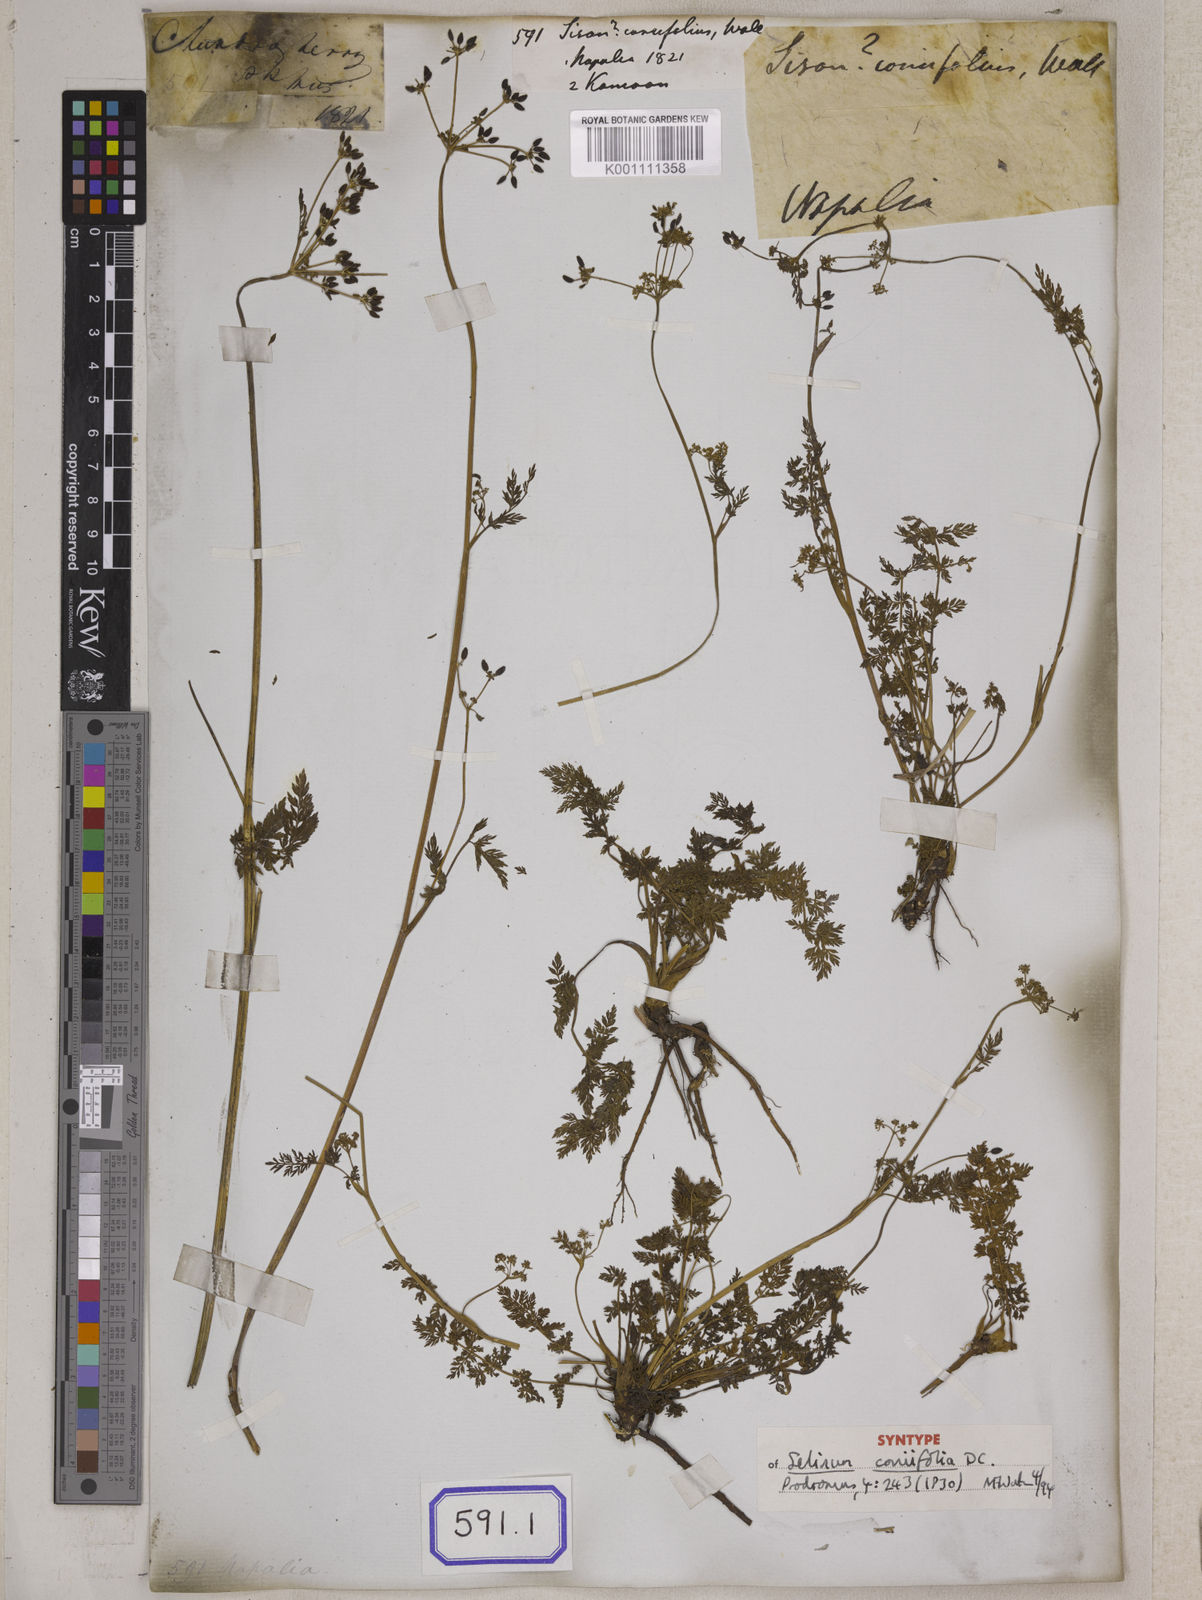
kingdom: Plantae
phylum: Tracheophyta
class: Magnoliopsida
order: Apiales
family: Apiaceae
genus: Sison
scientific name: Sison
